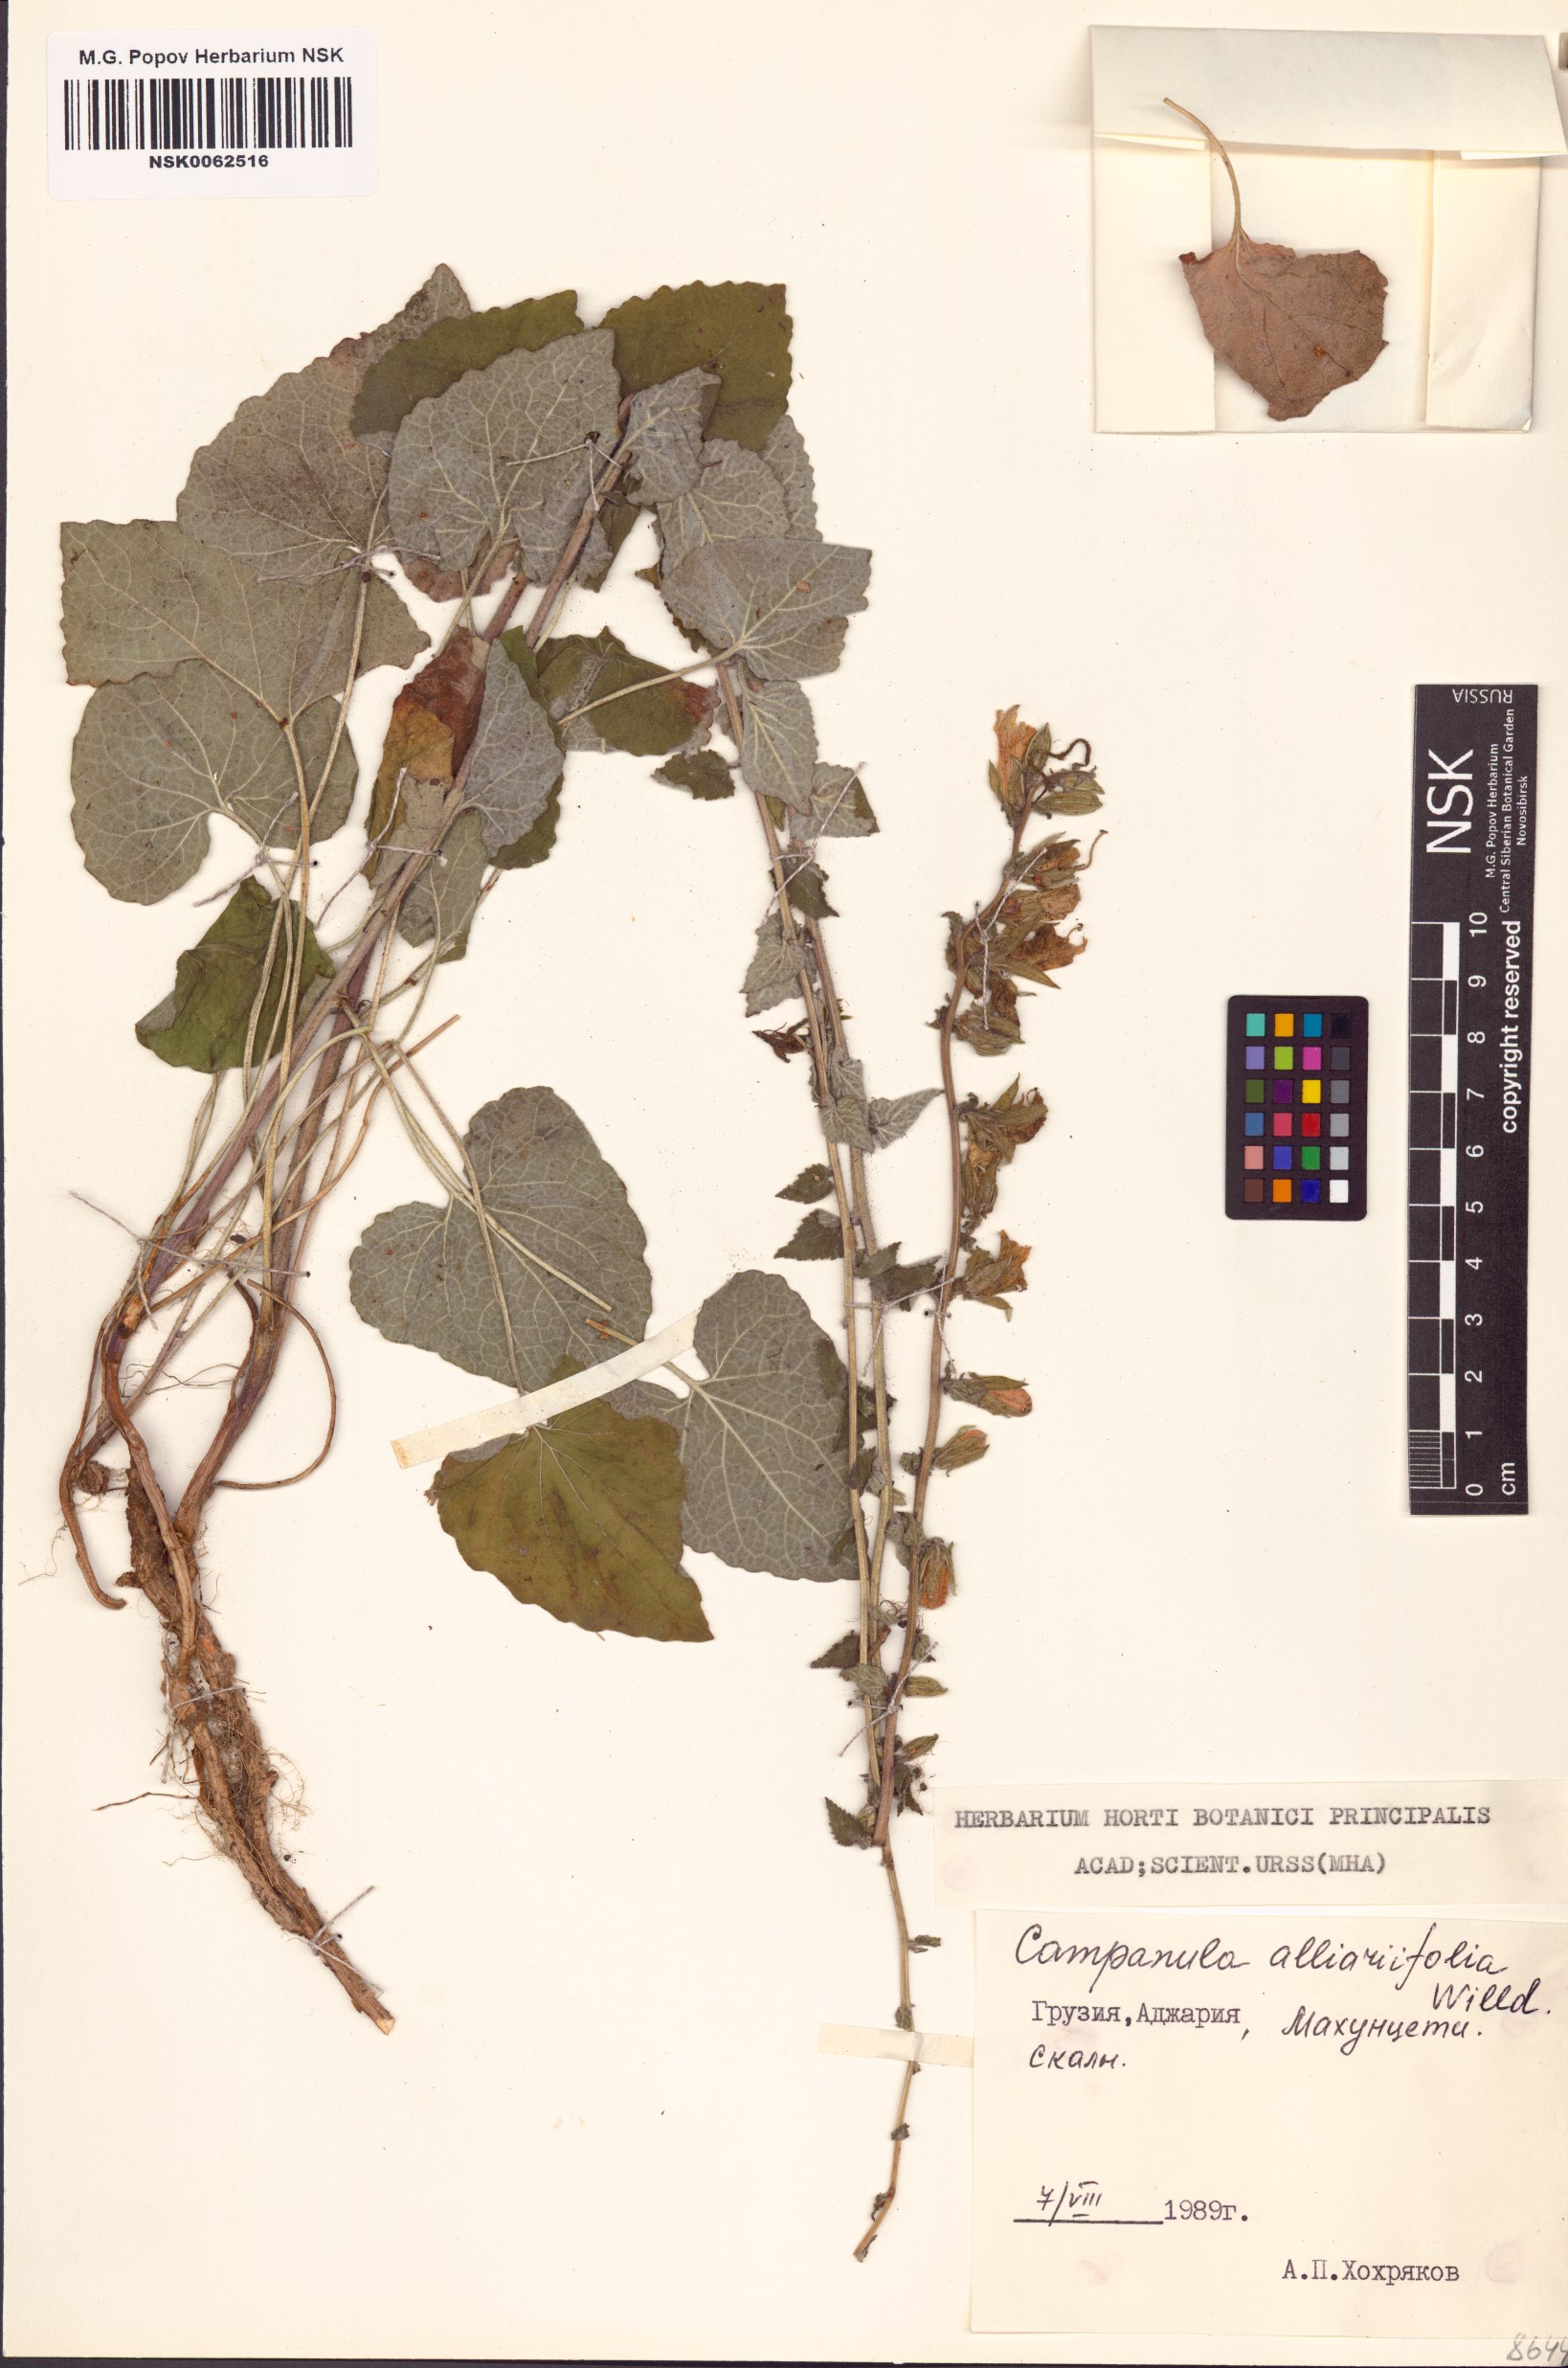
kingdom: Plantae
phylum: Tracheophyta
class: Magnoliopsida
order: Asterales
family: Campanulaceae
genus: Campanula
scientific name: Campanula alliariifolia
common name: Cornish bellflower
